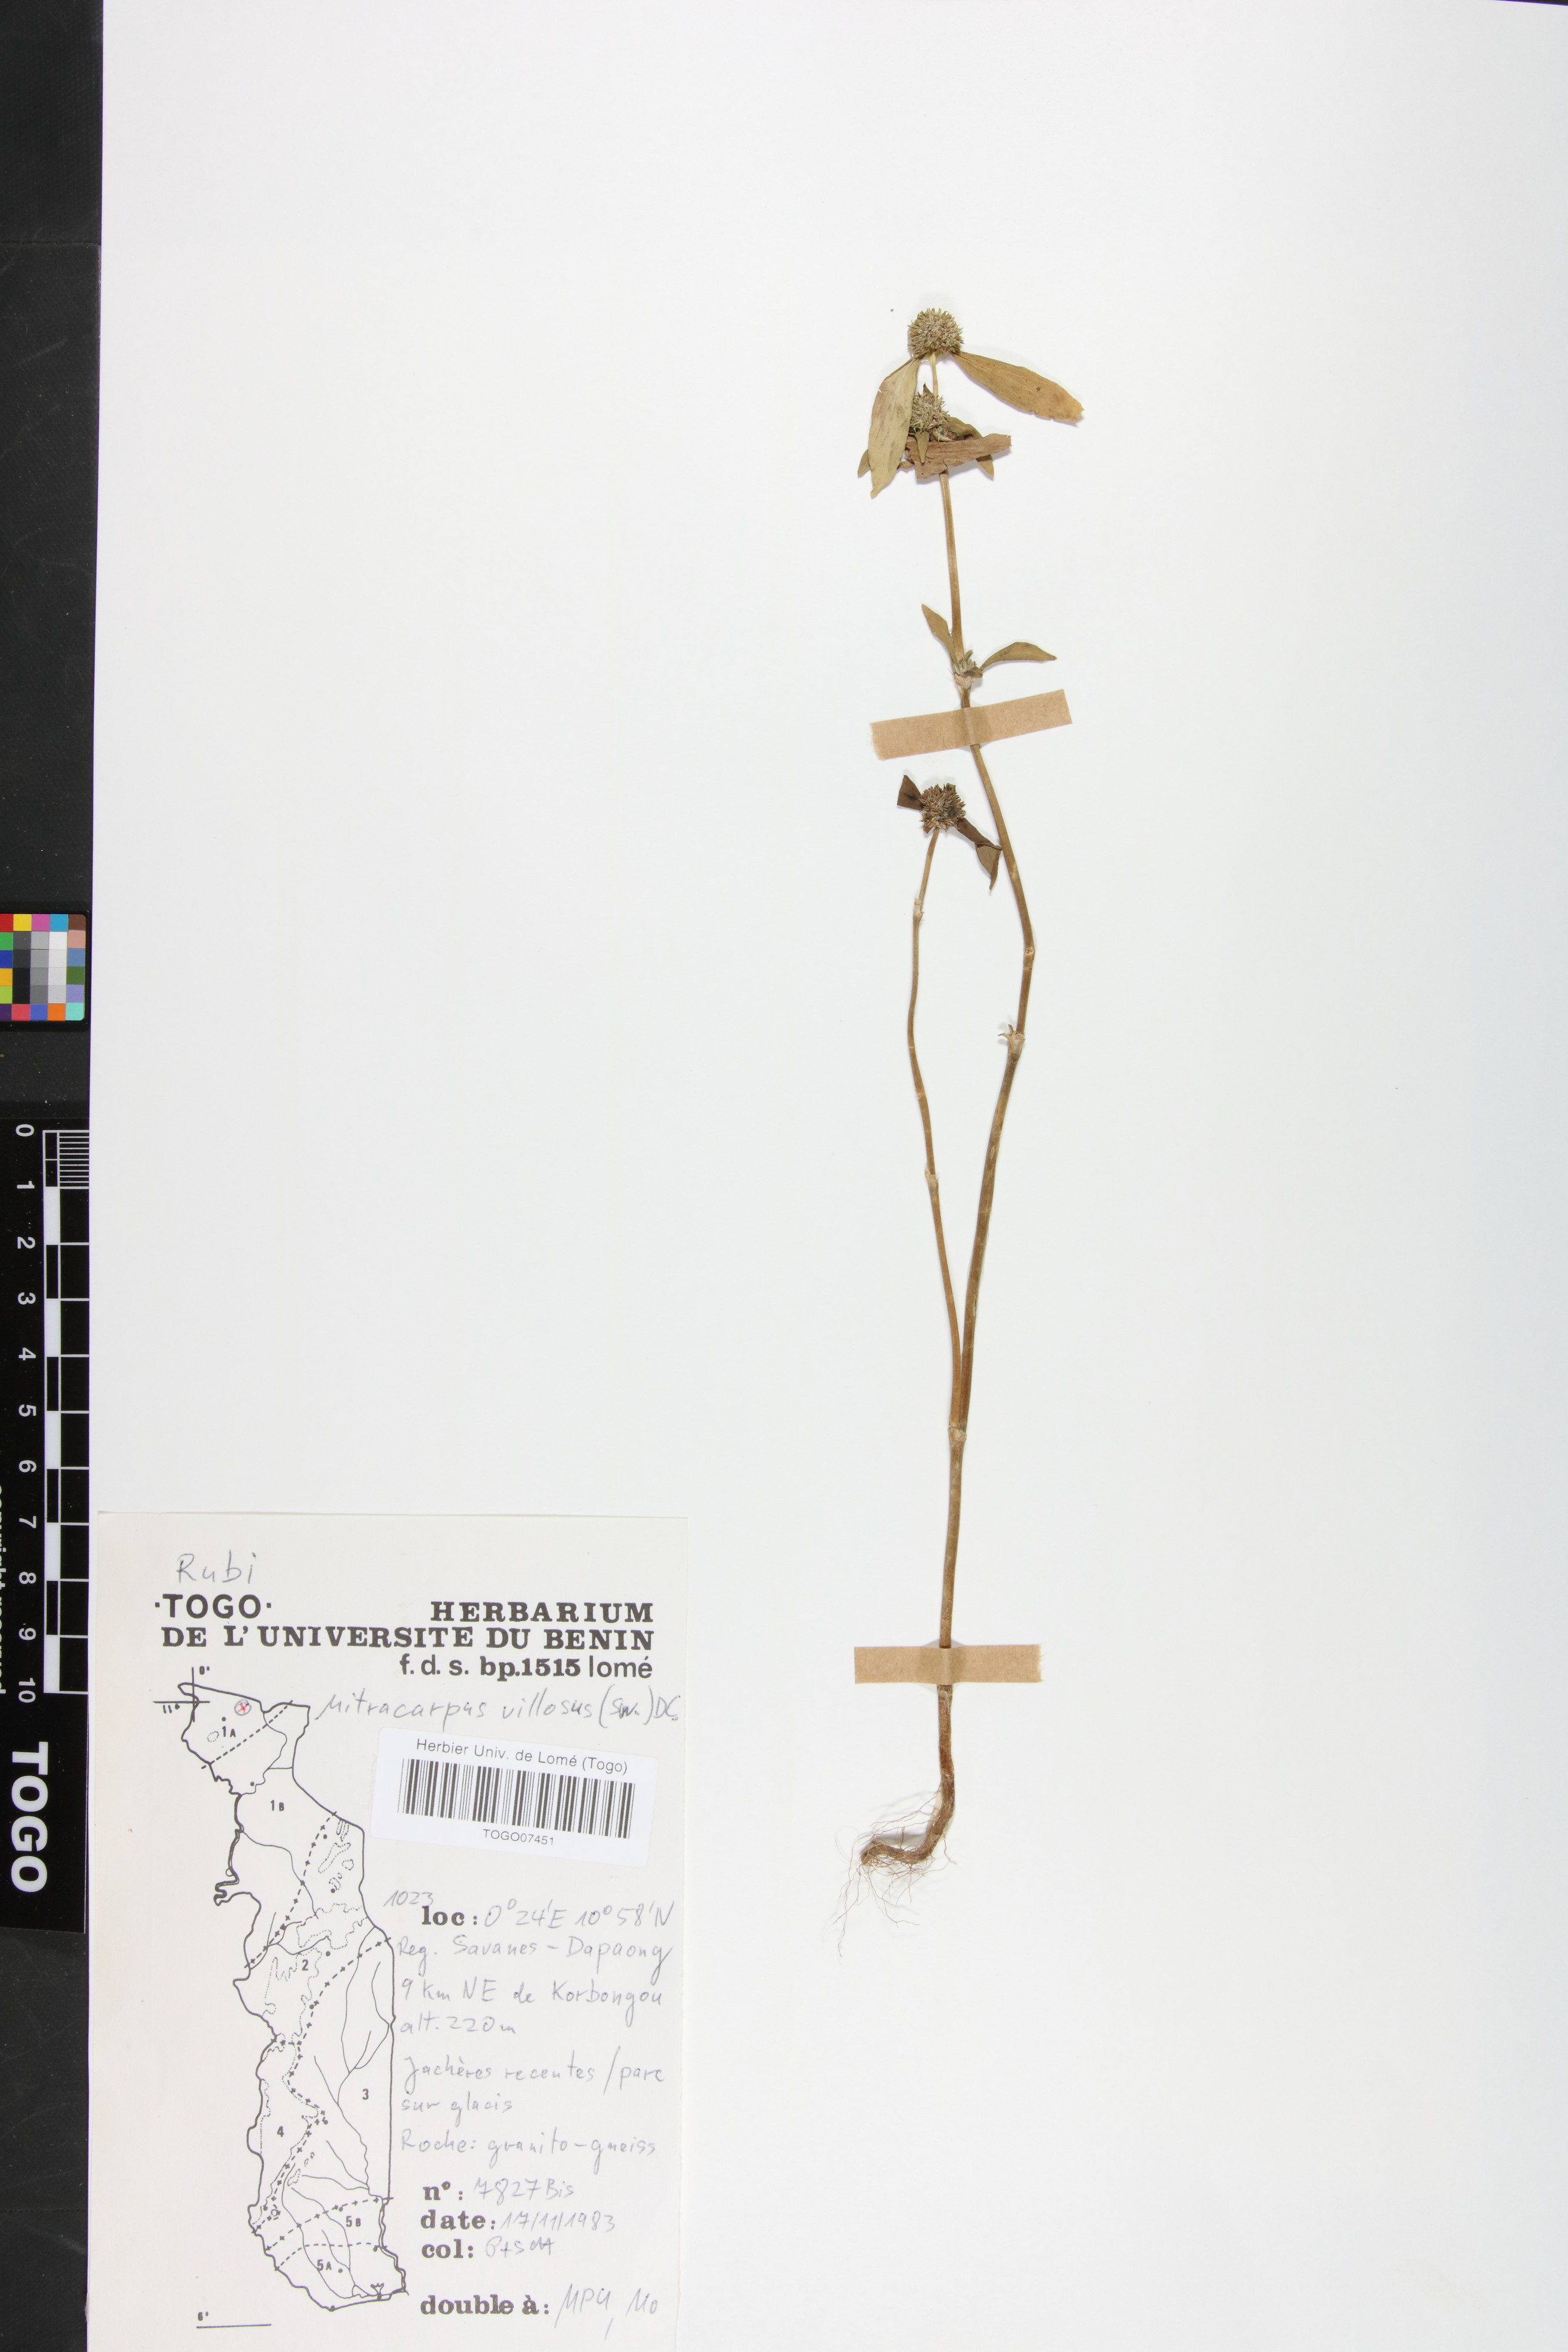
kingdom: Plantae
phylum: Tracheophyta
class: Magnoliopsida
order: Gentianales
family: Rubiaceae
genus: Mitracarpus
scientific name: Mitracarpus hirtus
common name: Tropical girdlepod
